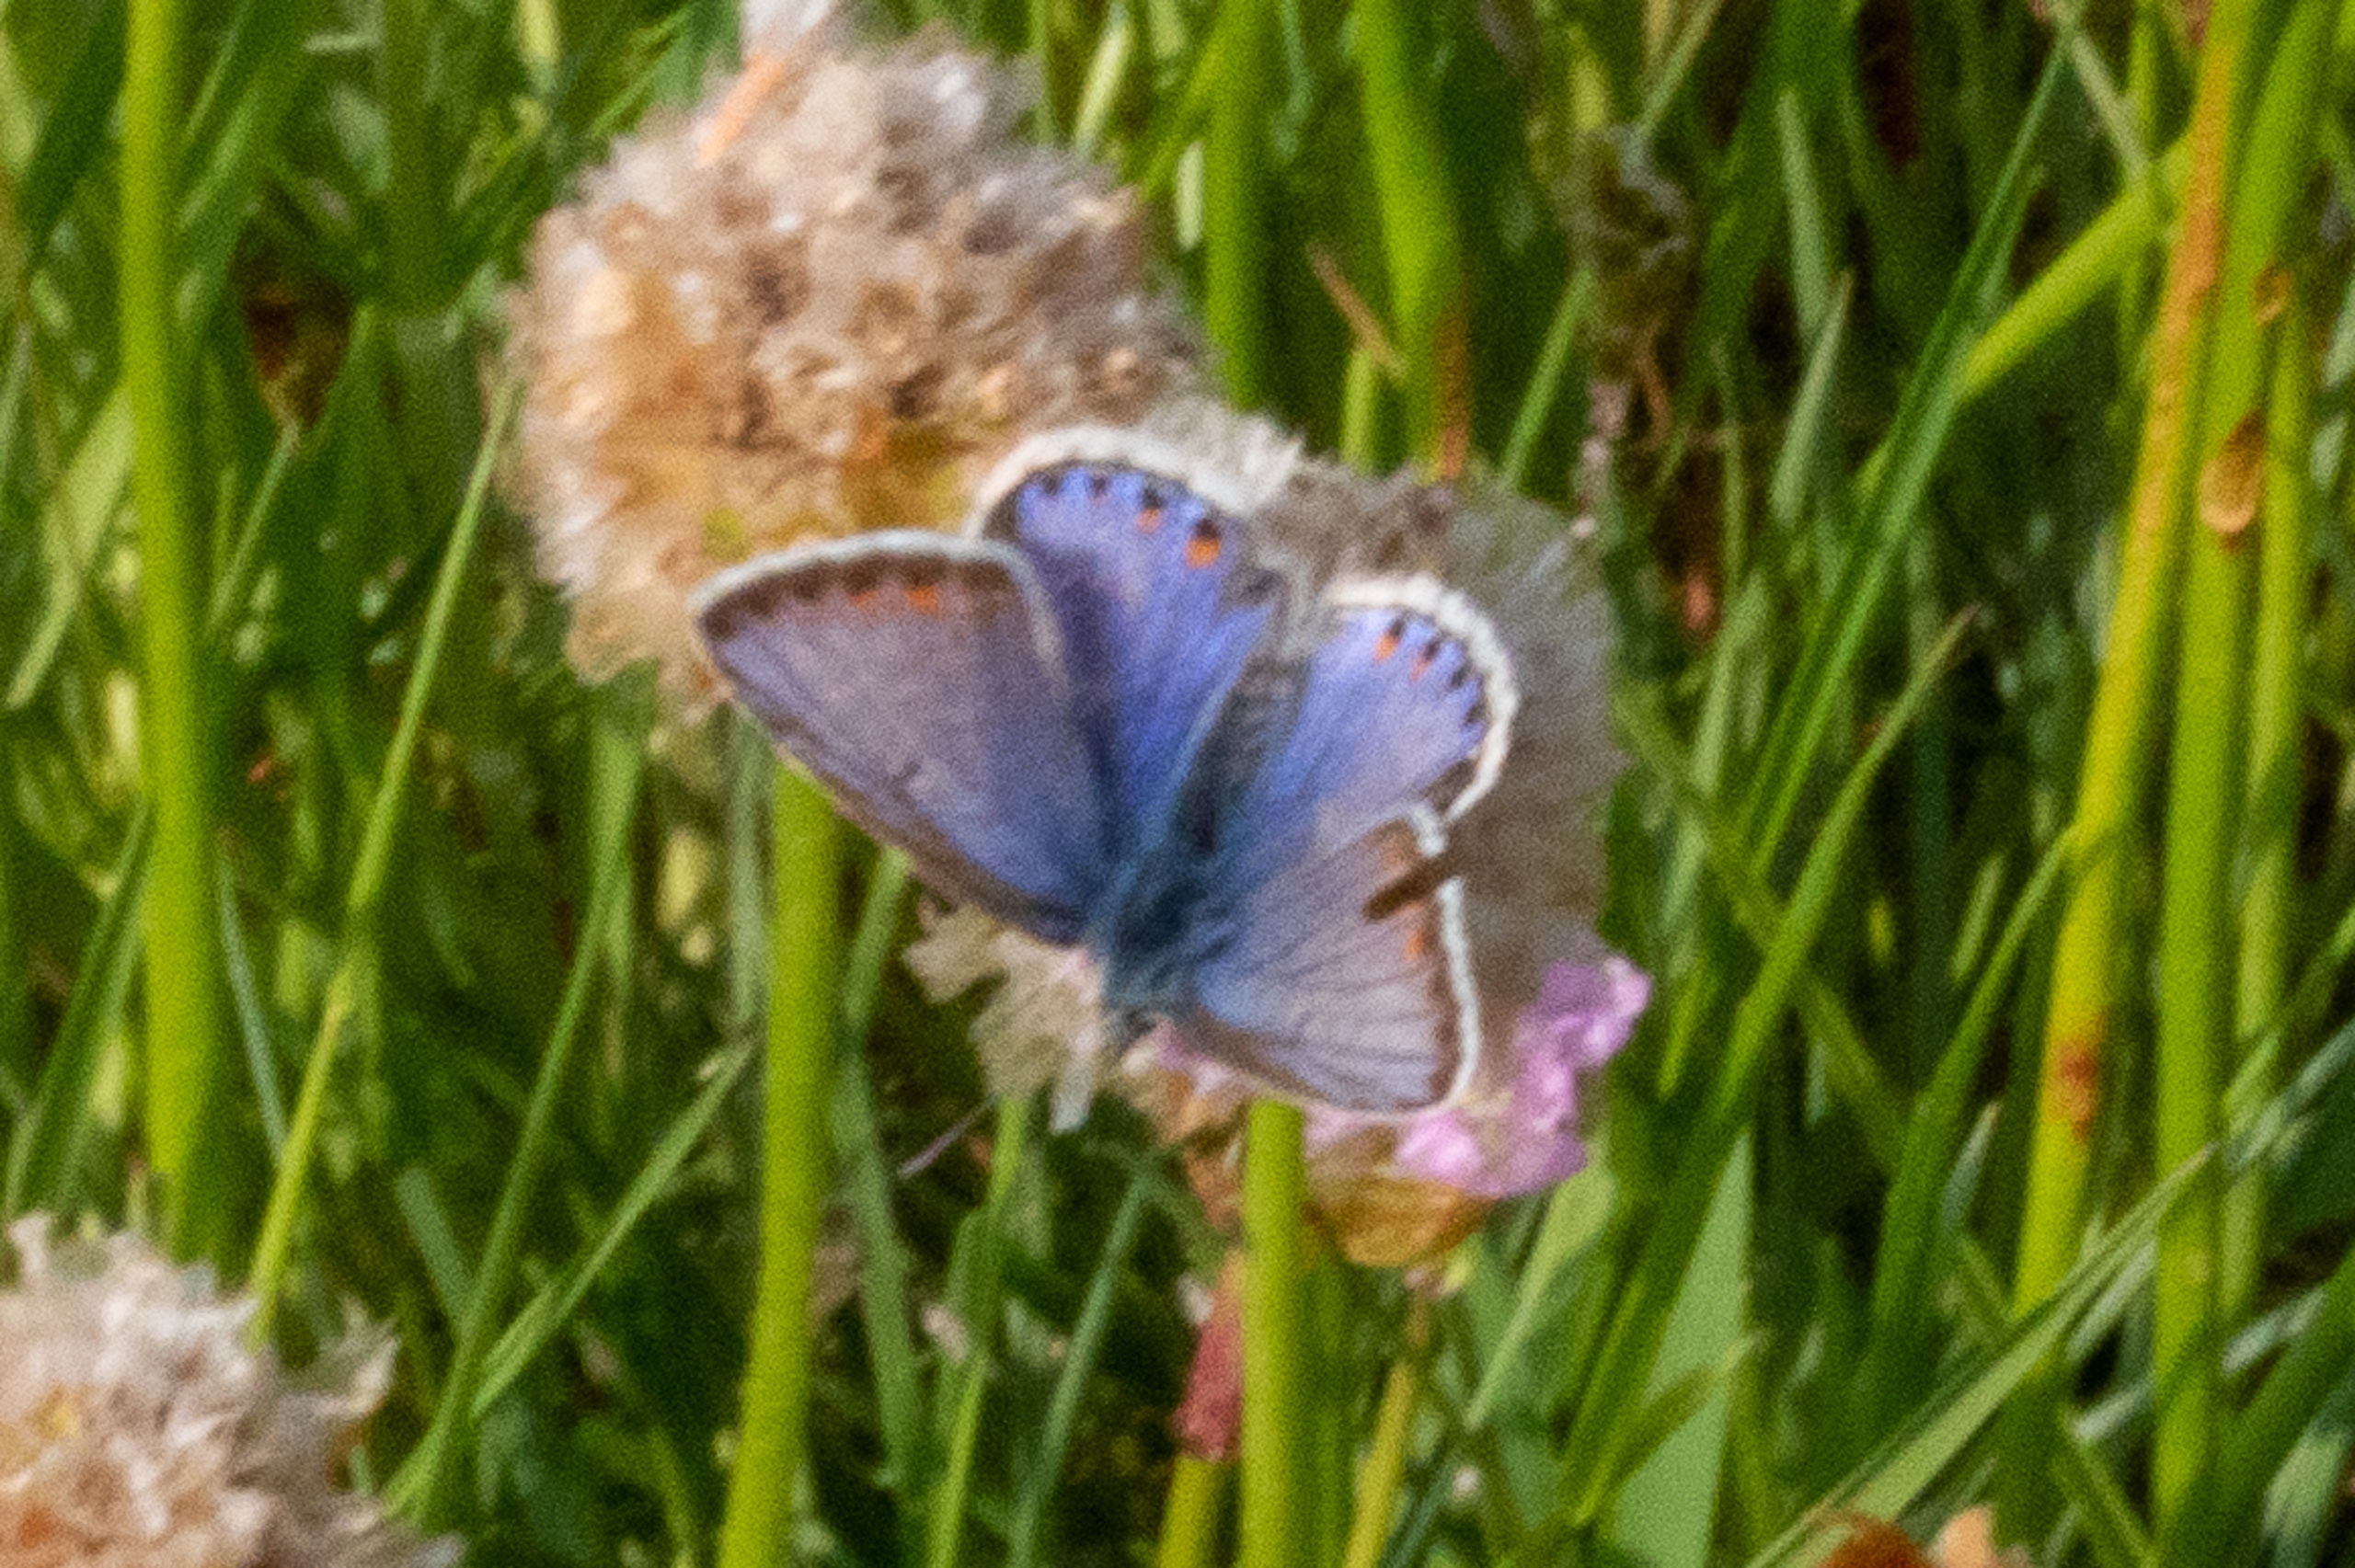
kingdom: Animalia
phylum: Arthropoda
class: Insecta
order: Lepidoptera
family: Lycaenidae
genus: Polyommatus
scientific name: Polyommatus icarus
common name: Almindelig blåfugl
